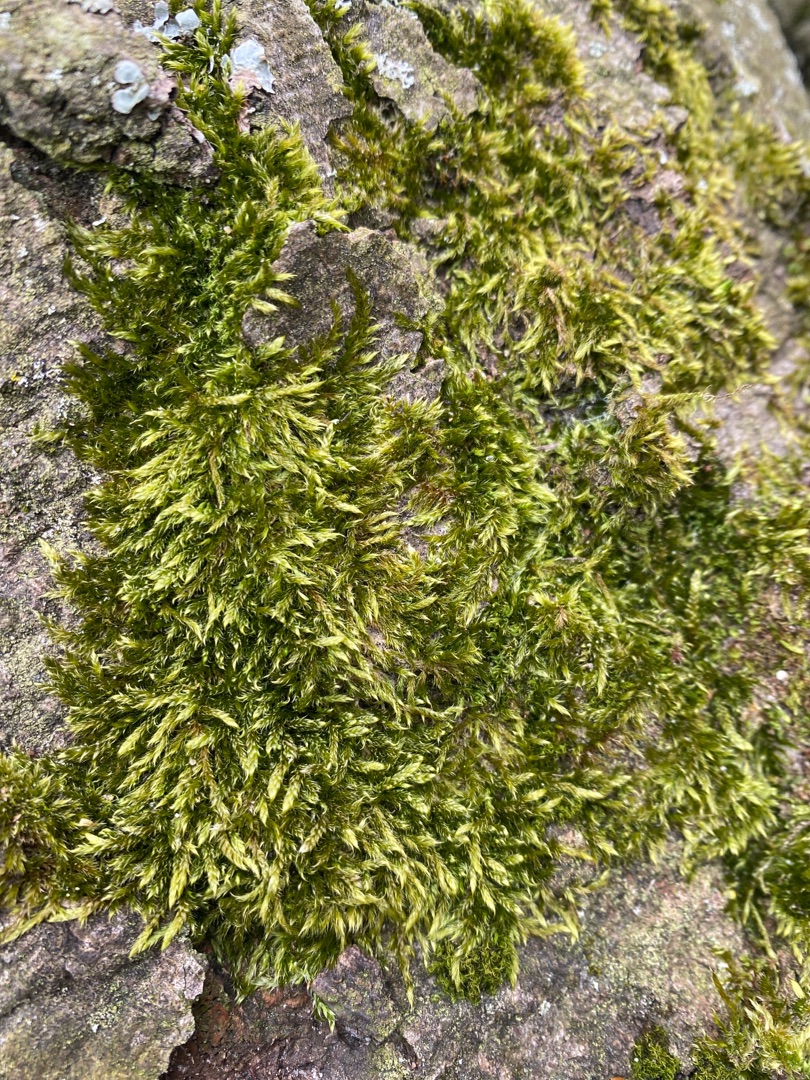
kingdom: Plantae
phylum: Bryophyta
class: Bryopsida
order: Hypnales
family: Hypnaceae
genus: Hypnum
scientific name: Hypnum cupressiforme
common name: Almindelig cypresmos
